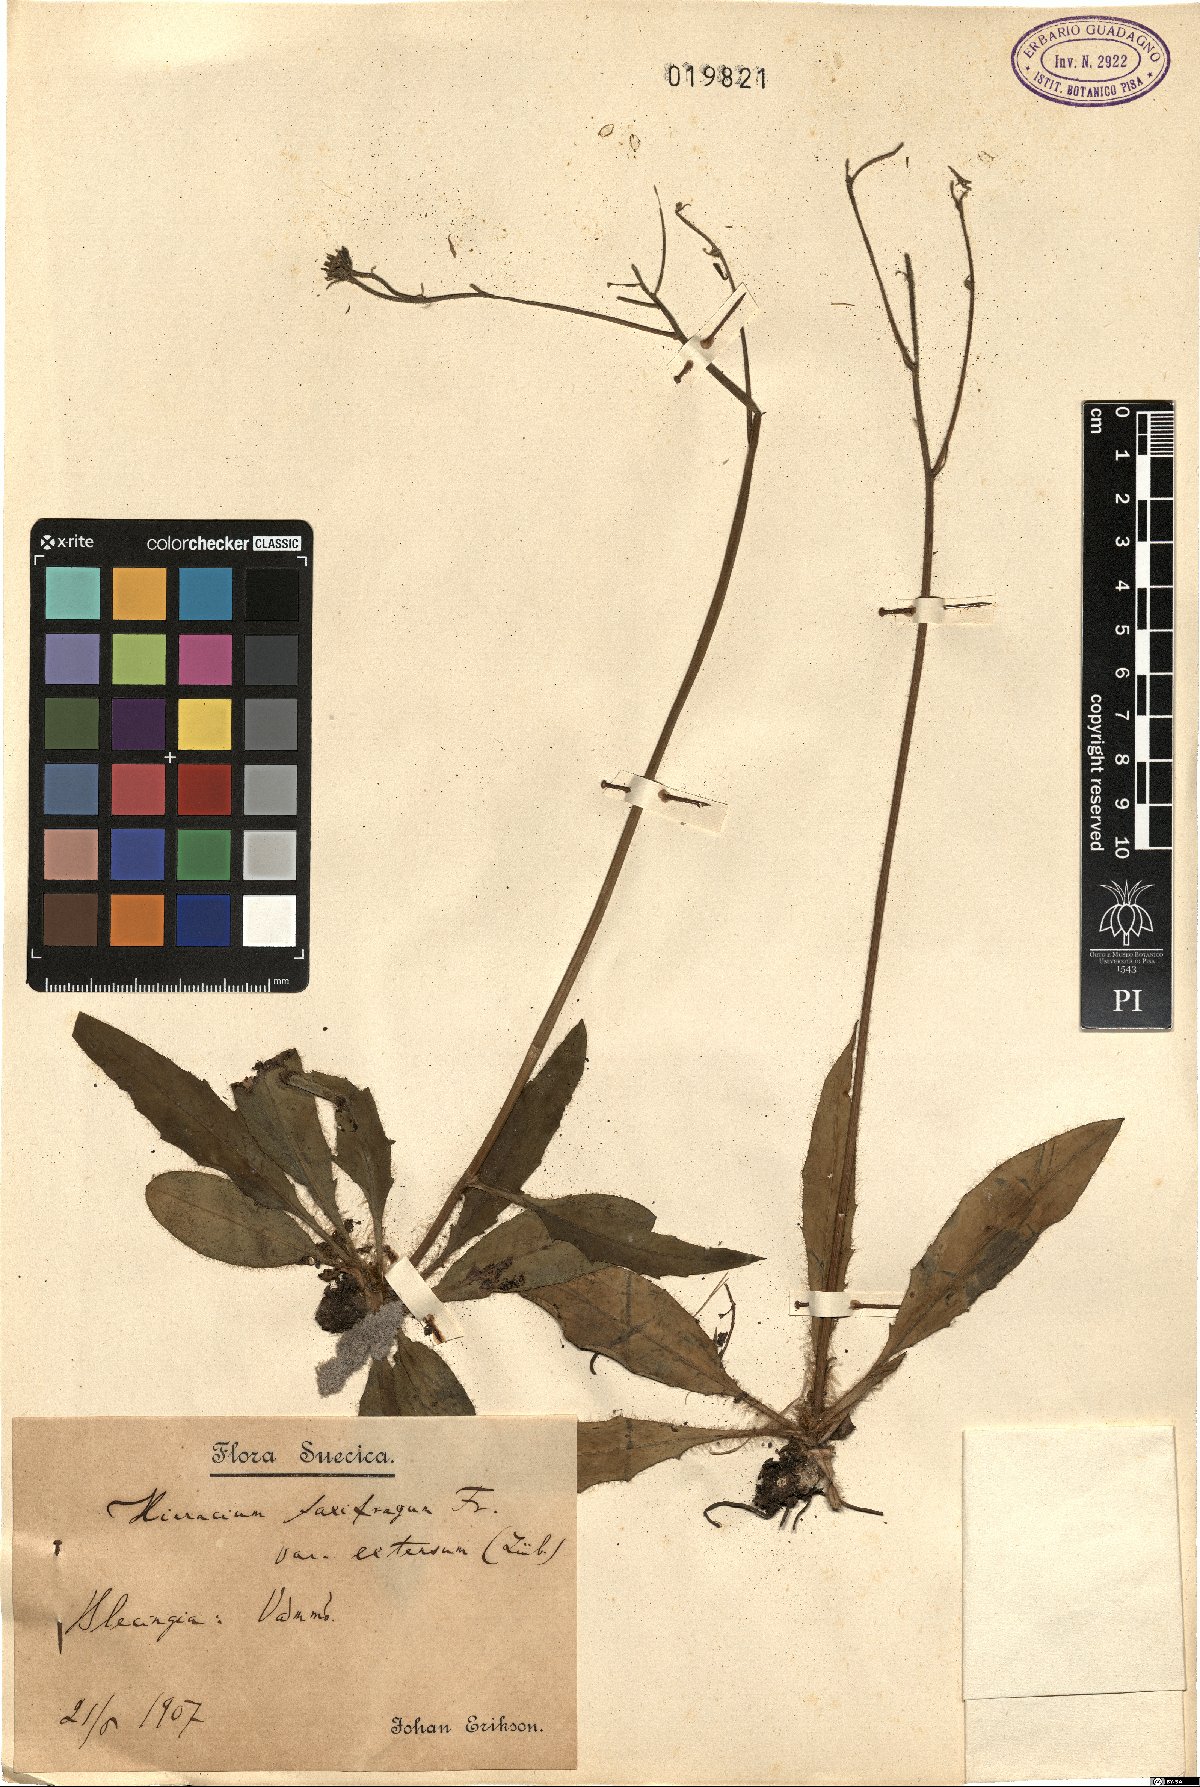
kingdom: Plantae
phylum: Tracheophyta
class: Magnoliopsida
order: Asterales
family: Asteraceae
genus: Hieracium
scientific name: Hieracium extensum
